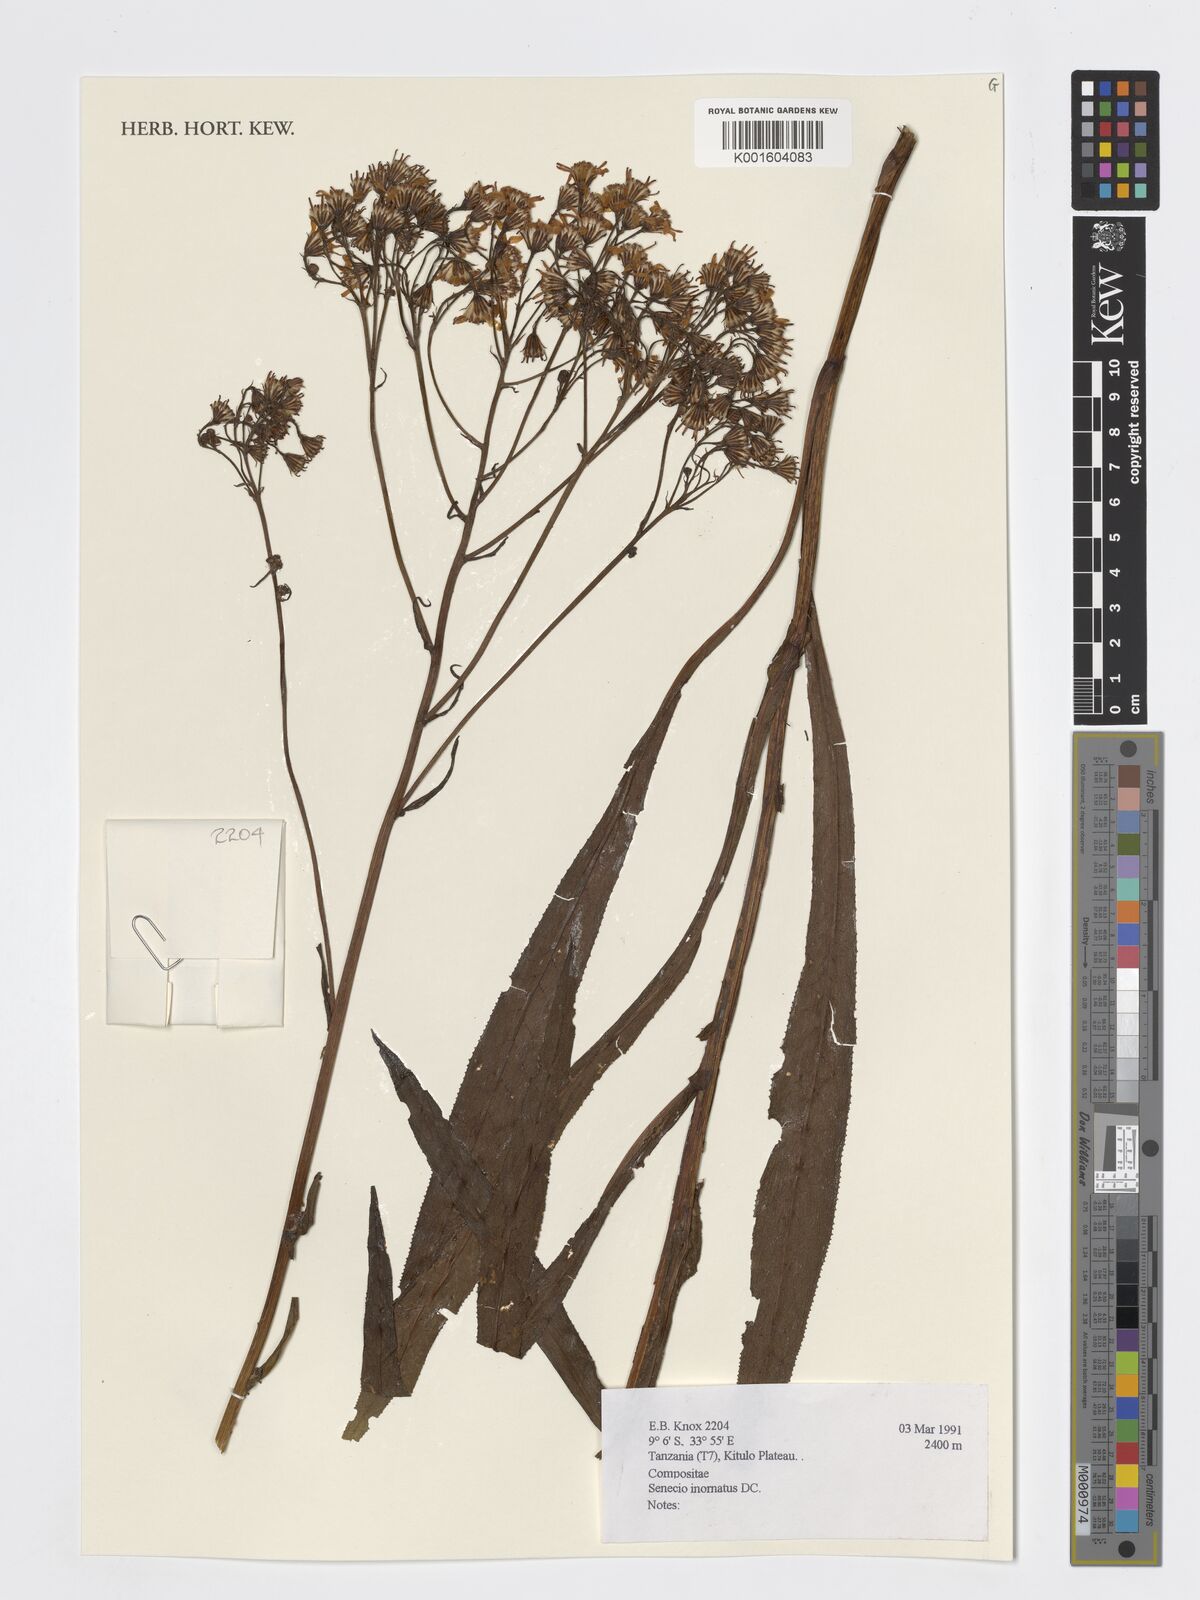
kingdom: Plantae
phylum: Tracheophyta
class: Magnoliopsida
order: Asterales
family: Asteraceae
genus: Senecio
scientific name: Senecio inornatus
